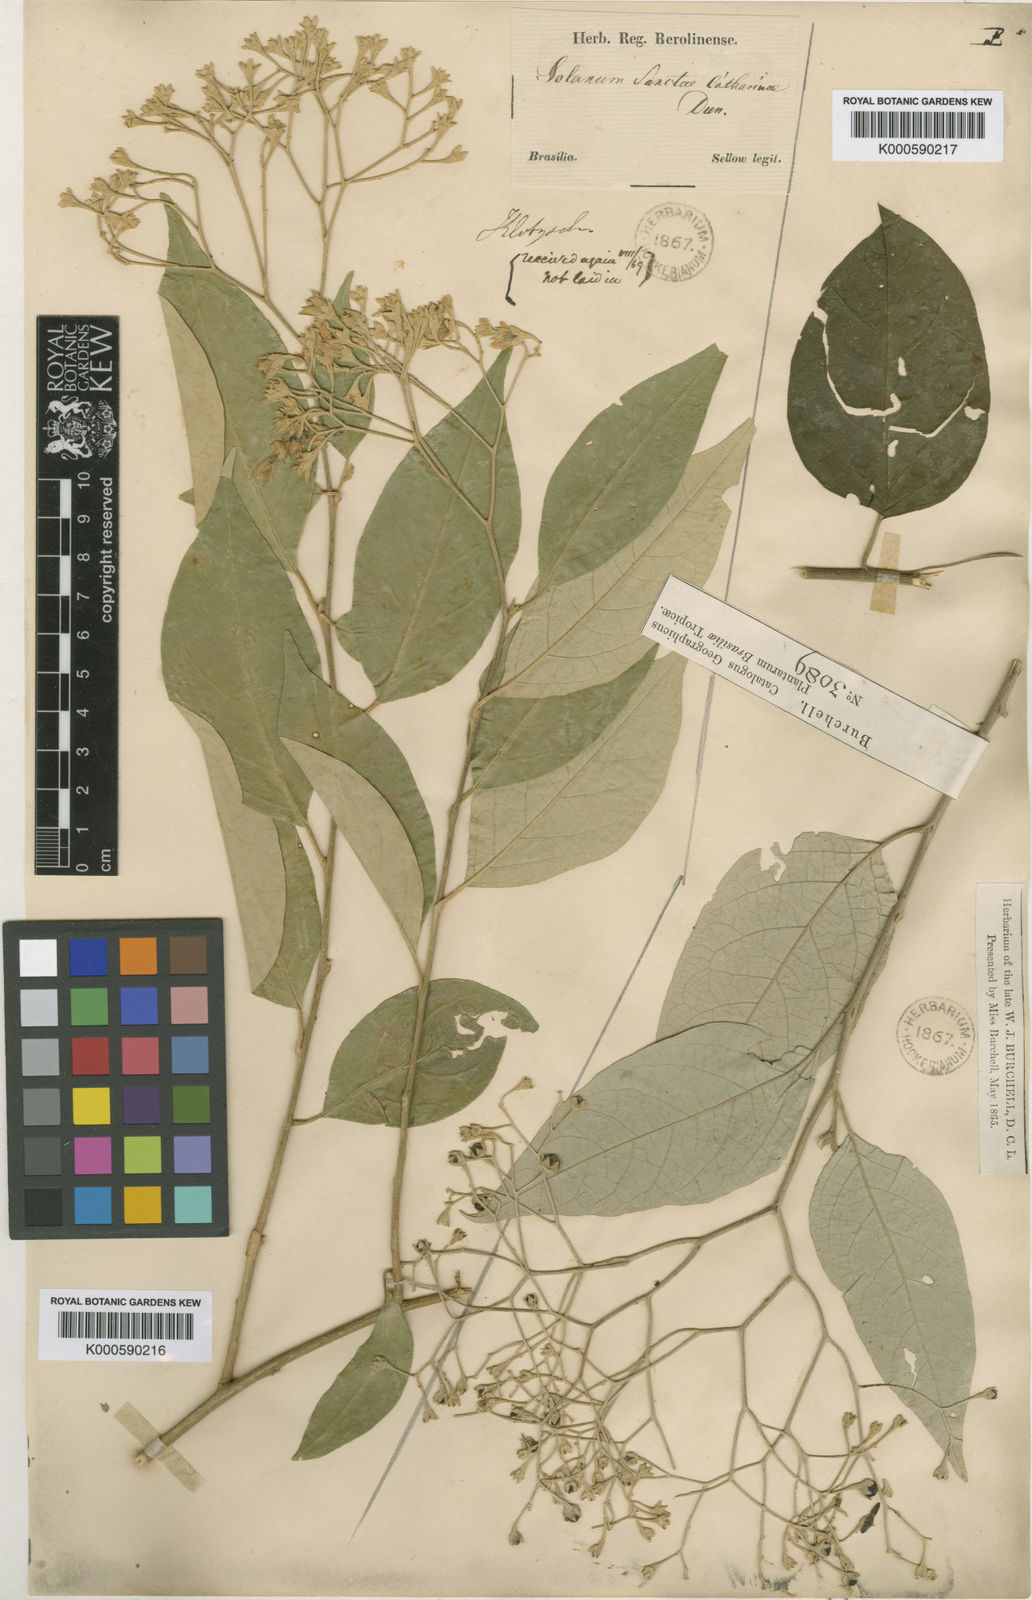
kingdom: Plantae
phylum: Tracheophyta
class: Magnoliopsida
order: Solanales
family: Solanaceae
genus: Solanum
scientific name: Solanum sanctae-catharinae
